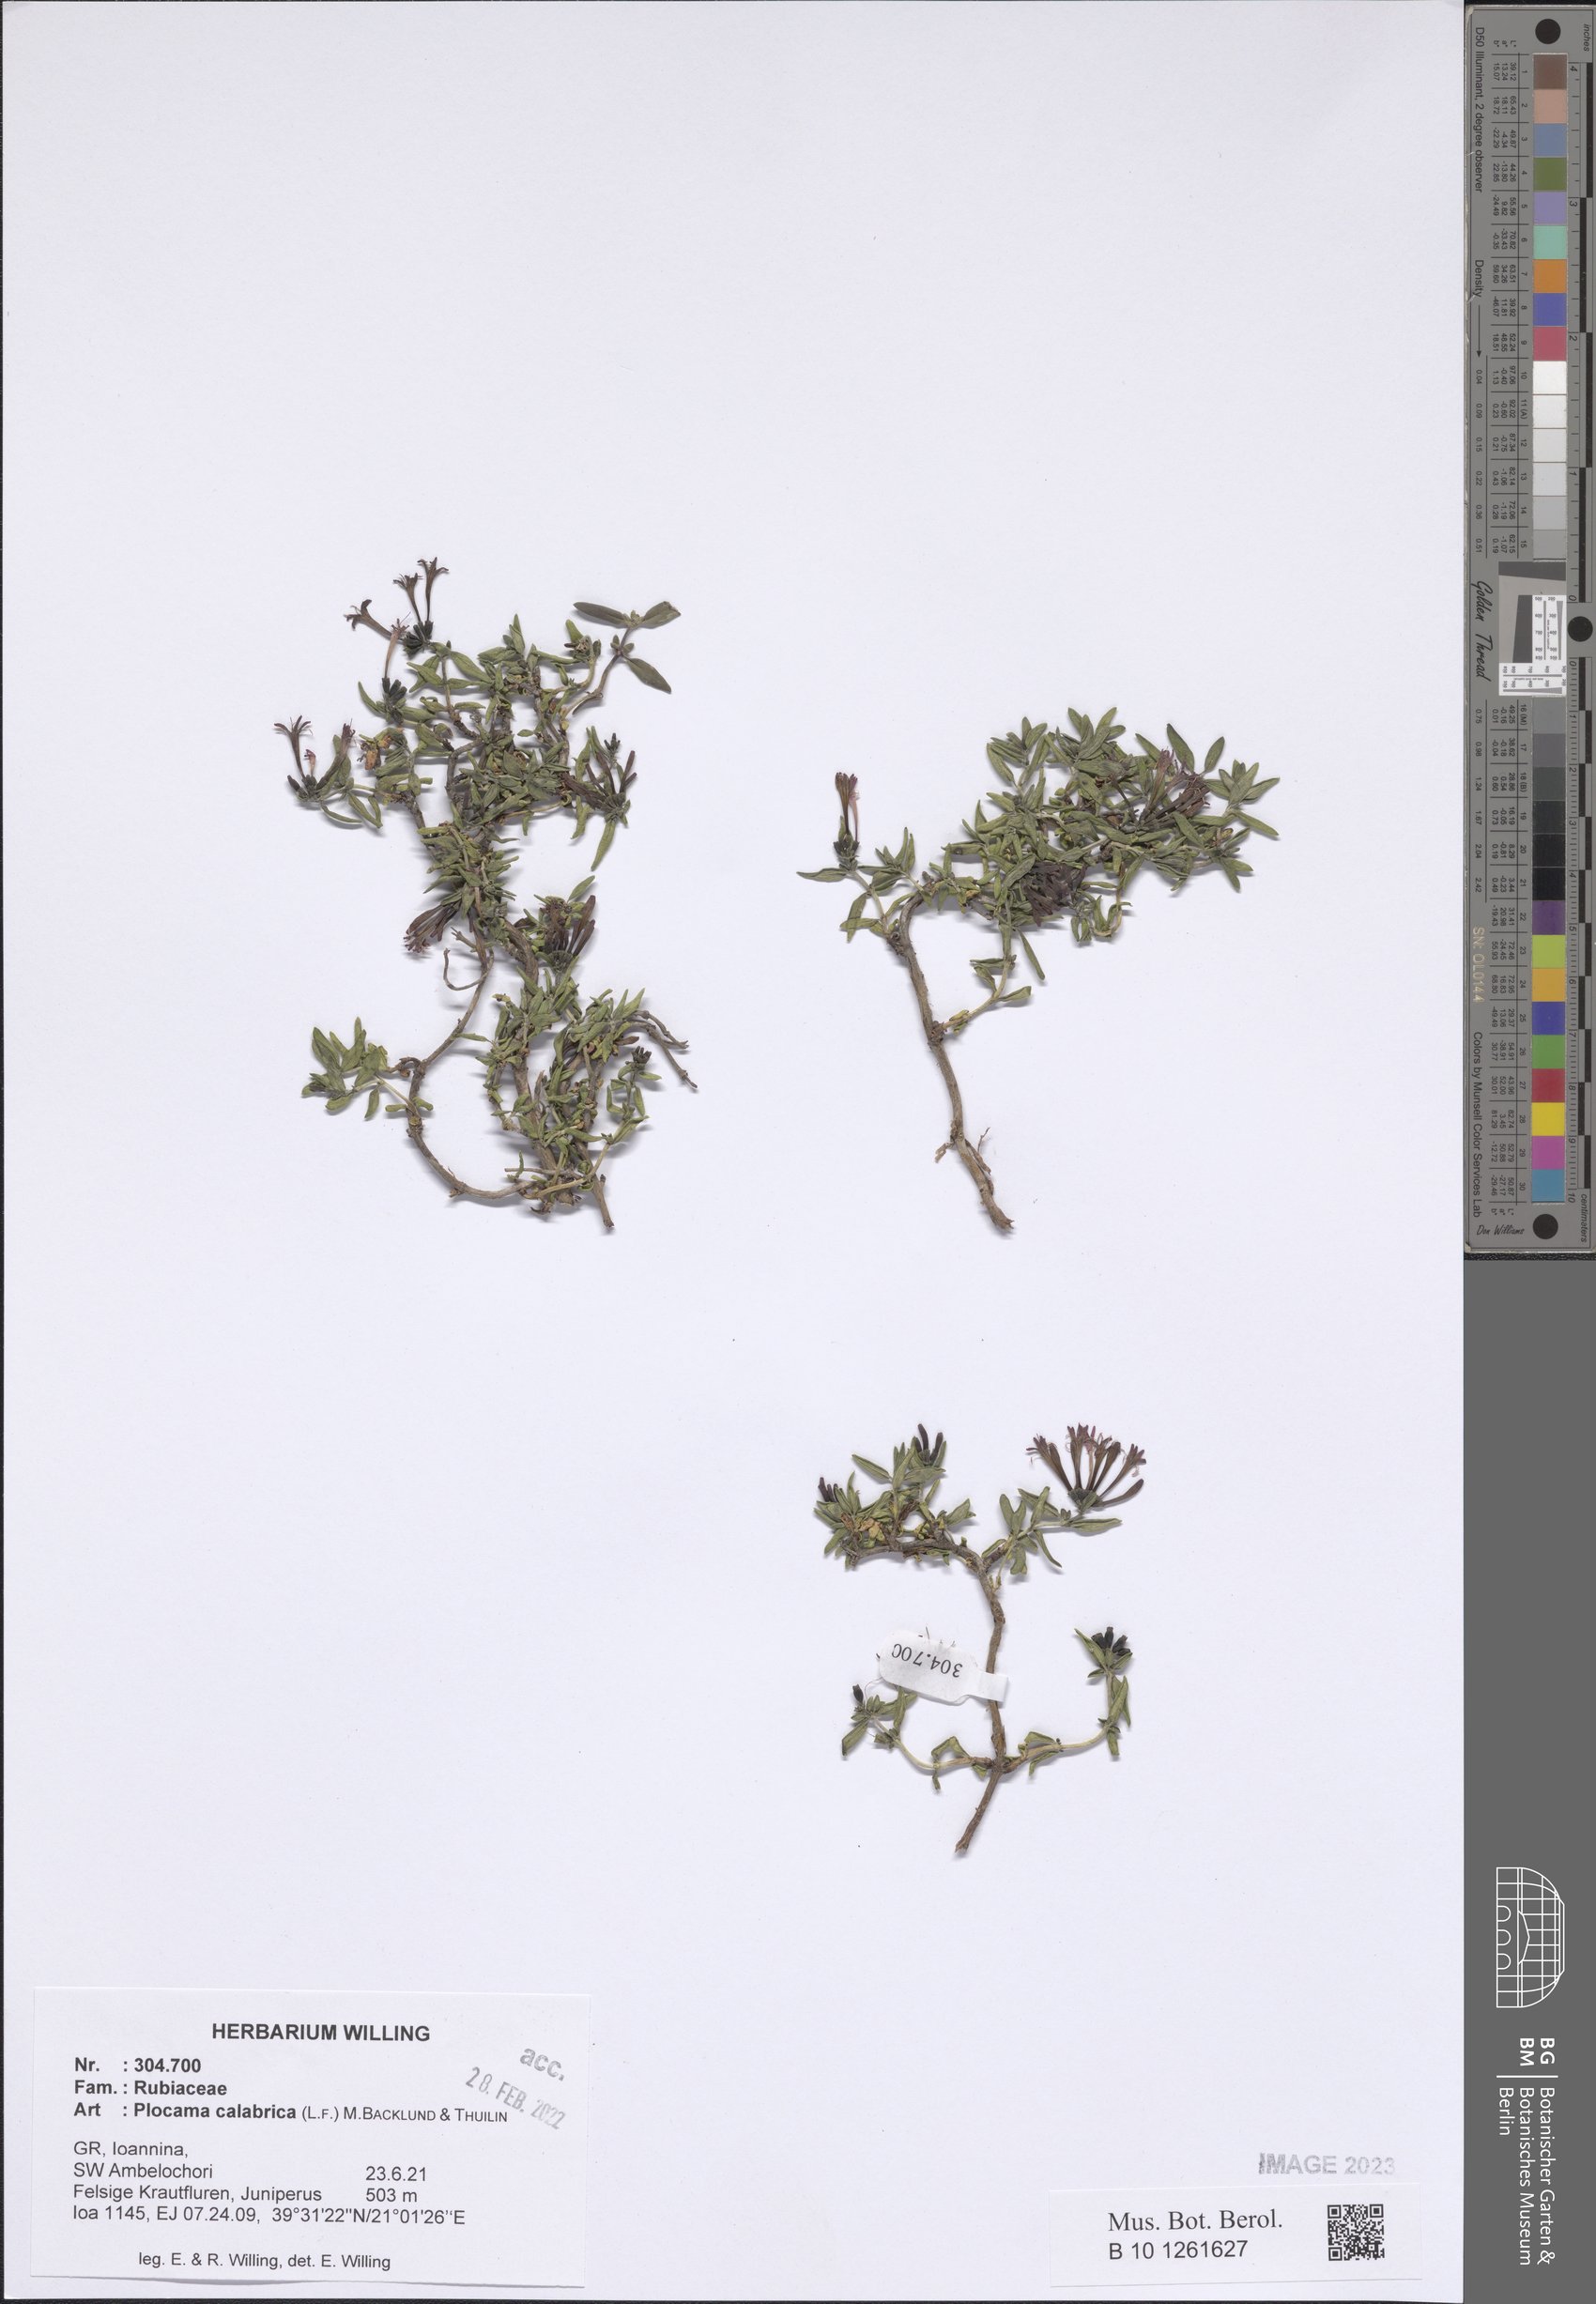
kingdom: Plantae
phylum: Tracheophyta
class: Magnoliopsida
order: Gentianales
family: Rubiaceae
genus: Plocama
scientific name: Plocama calabrica
